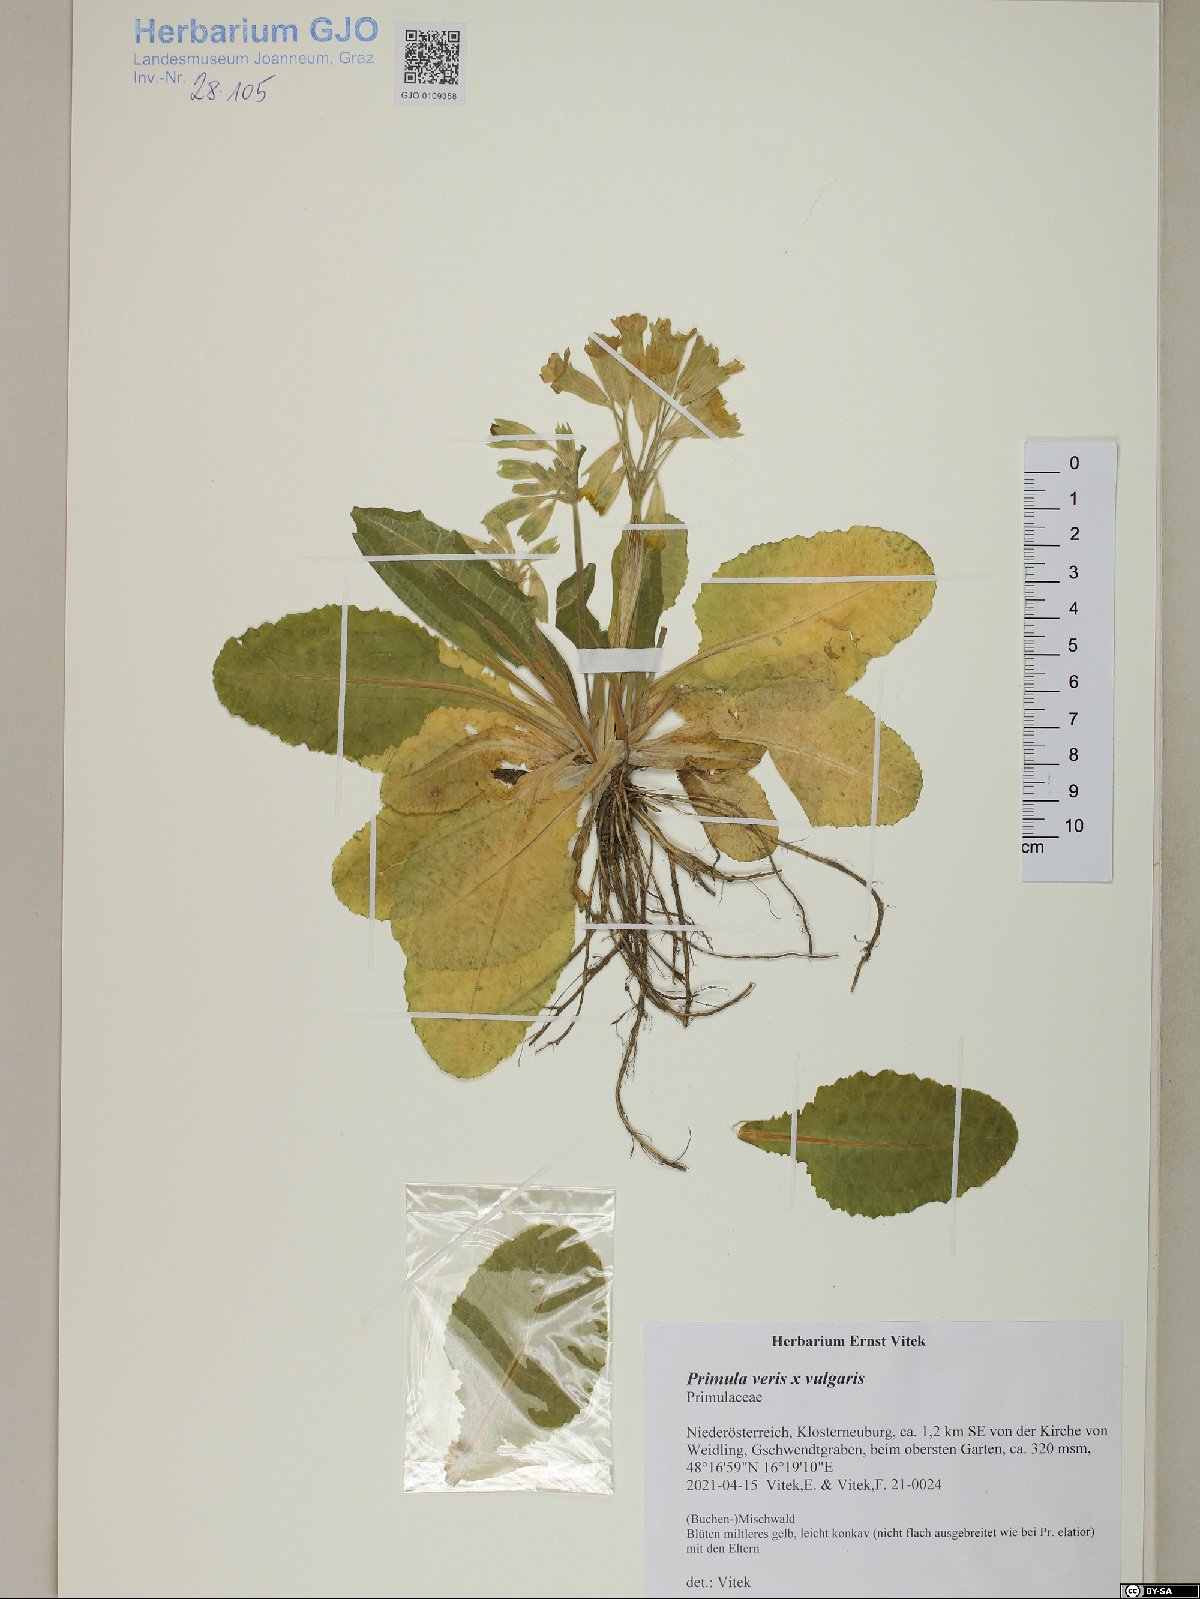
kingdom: Plantae
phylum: Tracheophyta
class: Magnoliopsida
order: Ericales
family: Primulaceae
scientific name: Primulaceae
